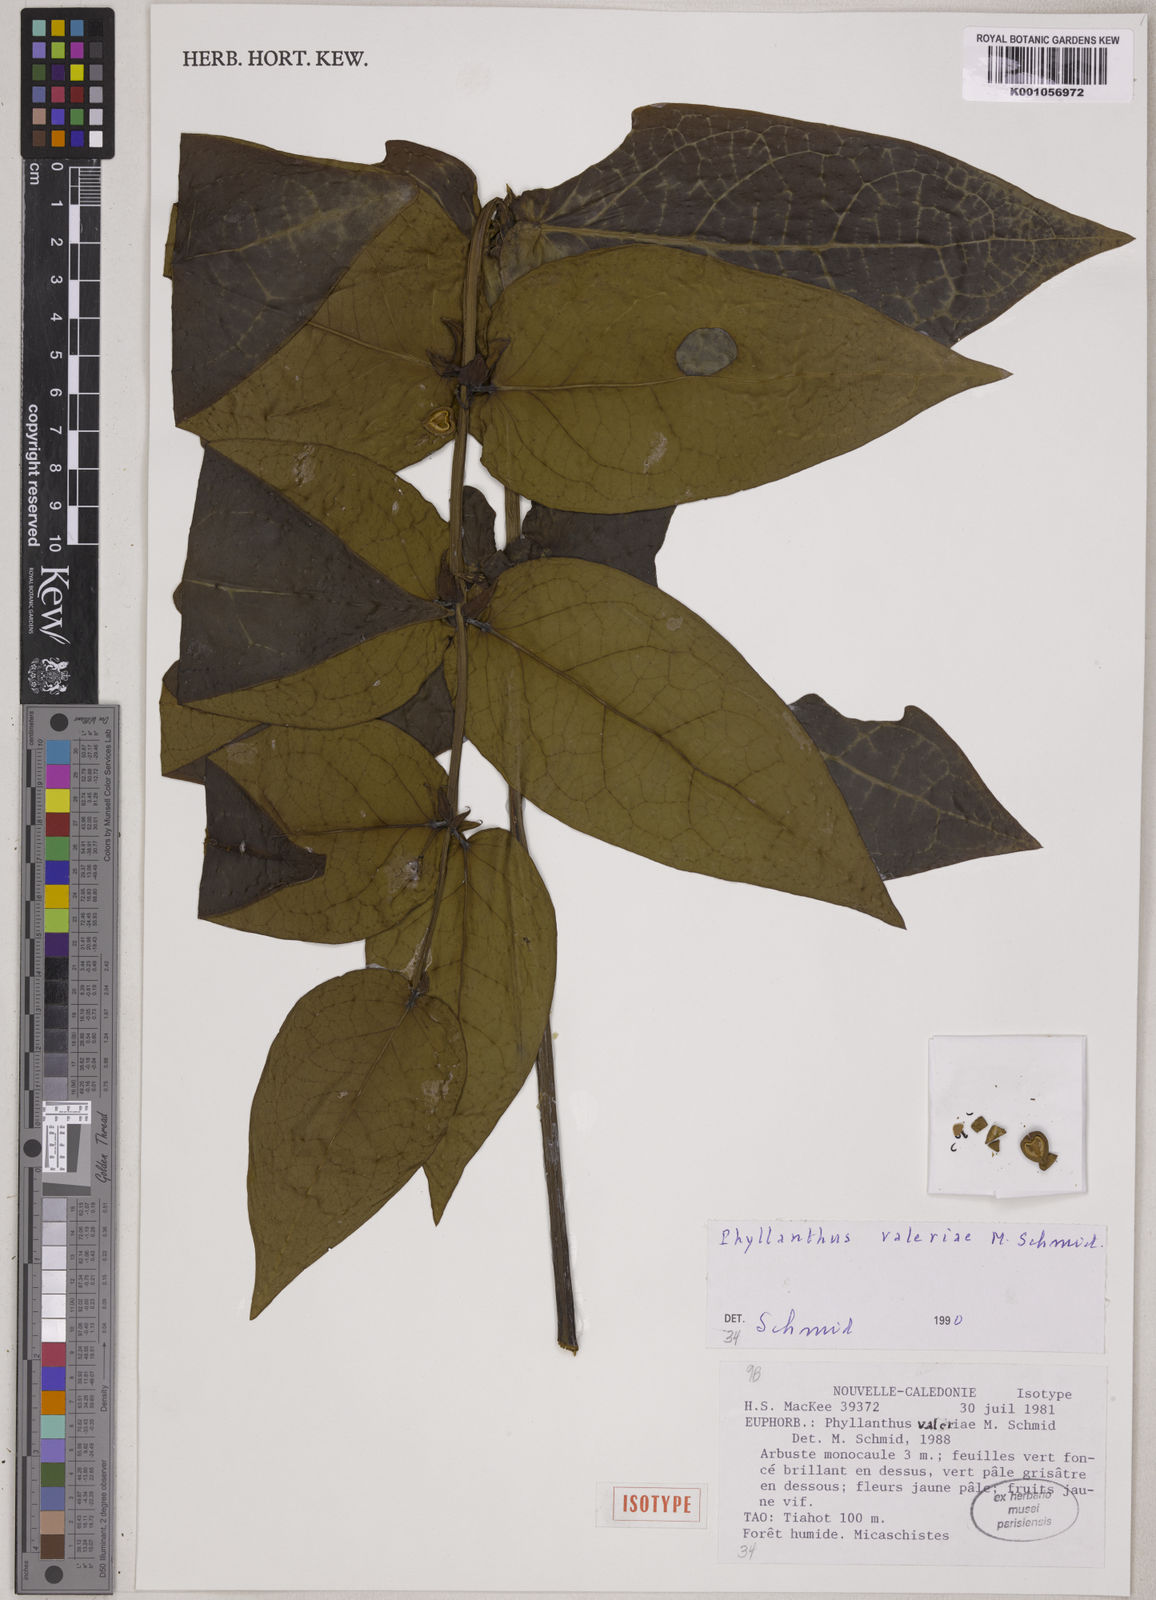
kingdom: Plantae
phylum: Tracheophyta
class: Magnoliopsida
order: Malpighiales
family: Phyllanthaceae
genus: Phyllanthus
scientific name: Phyllanthus valeriae
